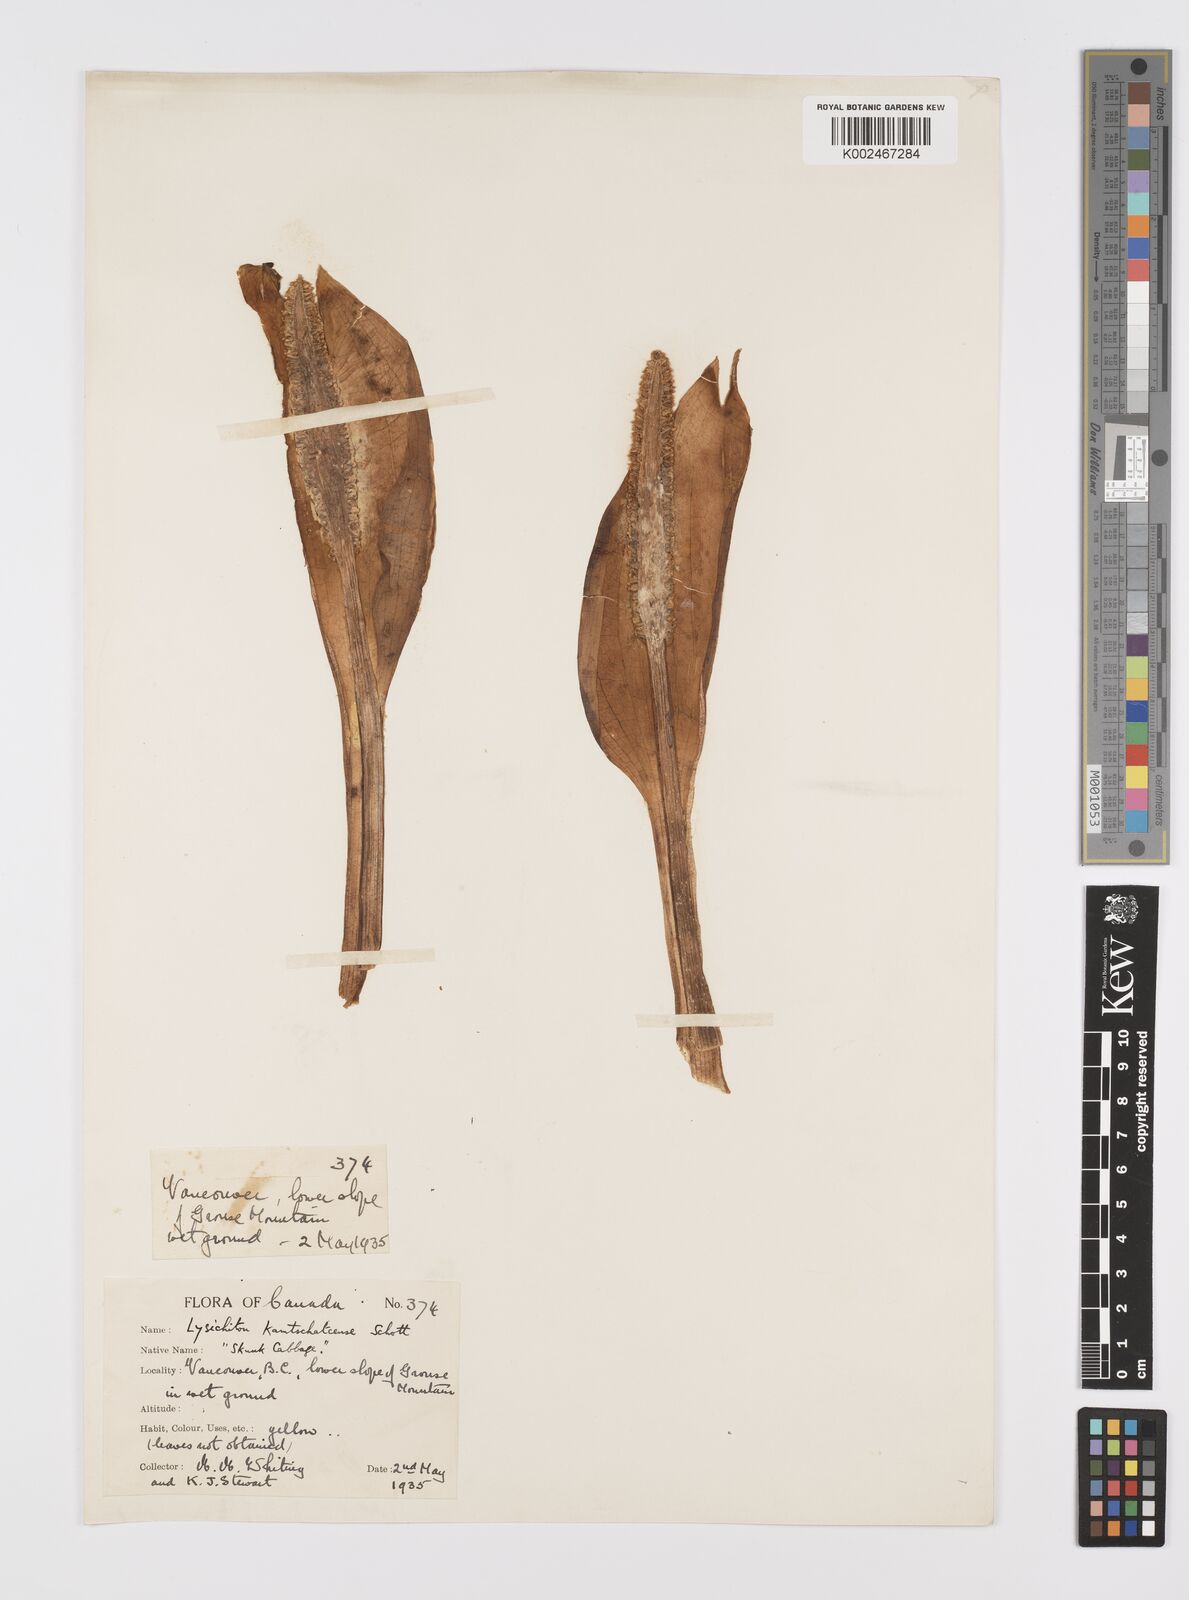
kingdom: Plantae
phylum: Tracheophyta
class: Liliopsida
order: Alismatales
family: Araceae
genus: Lysichiton
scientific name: Lysichiton americanus
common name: American skunk cabbage
